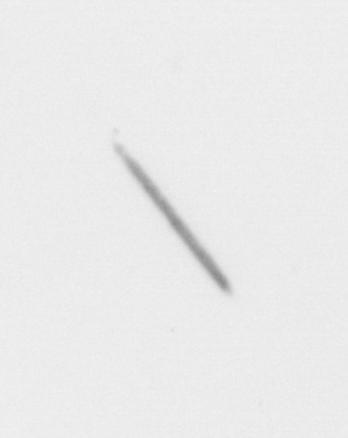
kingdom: Chromista
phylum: Ochrophyta
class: Bacillariophyceae
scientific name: Bacillariophyceae
